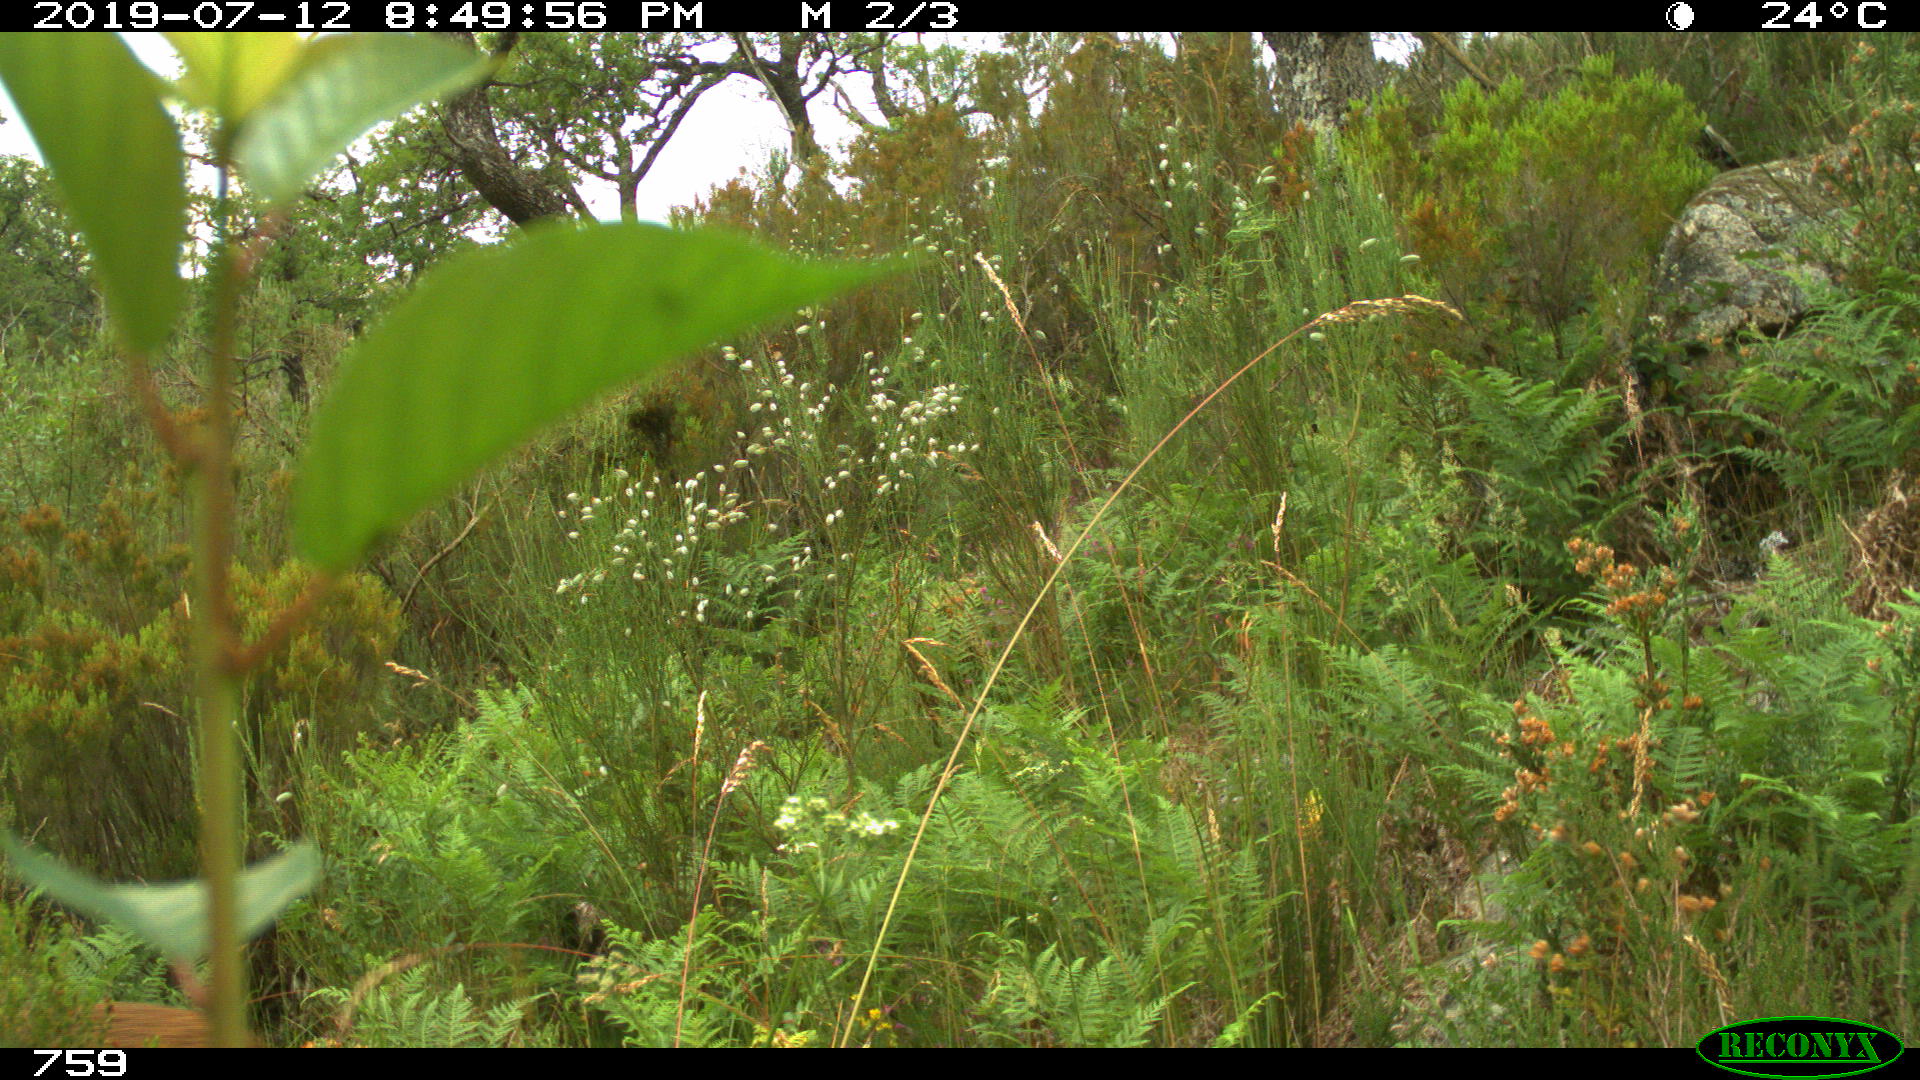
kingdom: Animalia
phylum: Chordata
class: Mammalia
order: Artiodactyla
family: Cervidae
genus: Capreolus
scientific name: Capreolus capreolus
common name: Western roe deer
